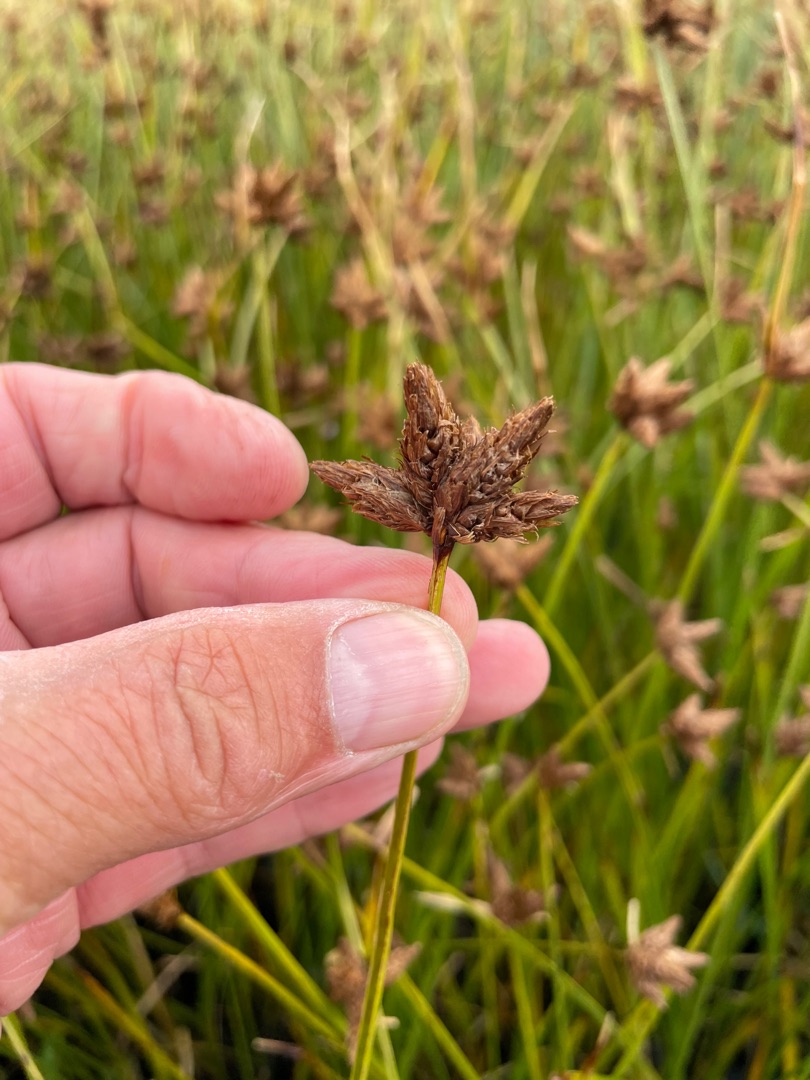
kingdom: Plantae
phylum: Tracheophyta
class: Liliopsida
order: Poales
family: Cyperaceae
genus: Bolboschoenus
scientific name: Bolboschoenus maritimus
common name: Strand-kogleaks
